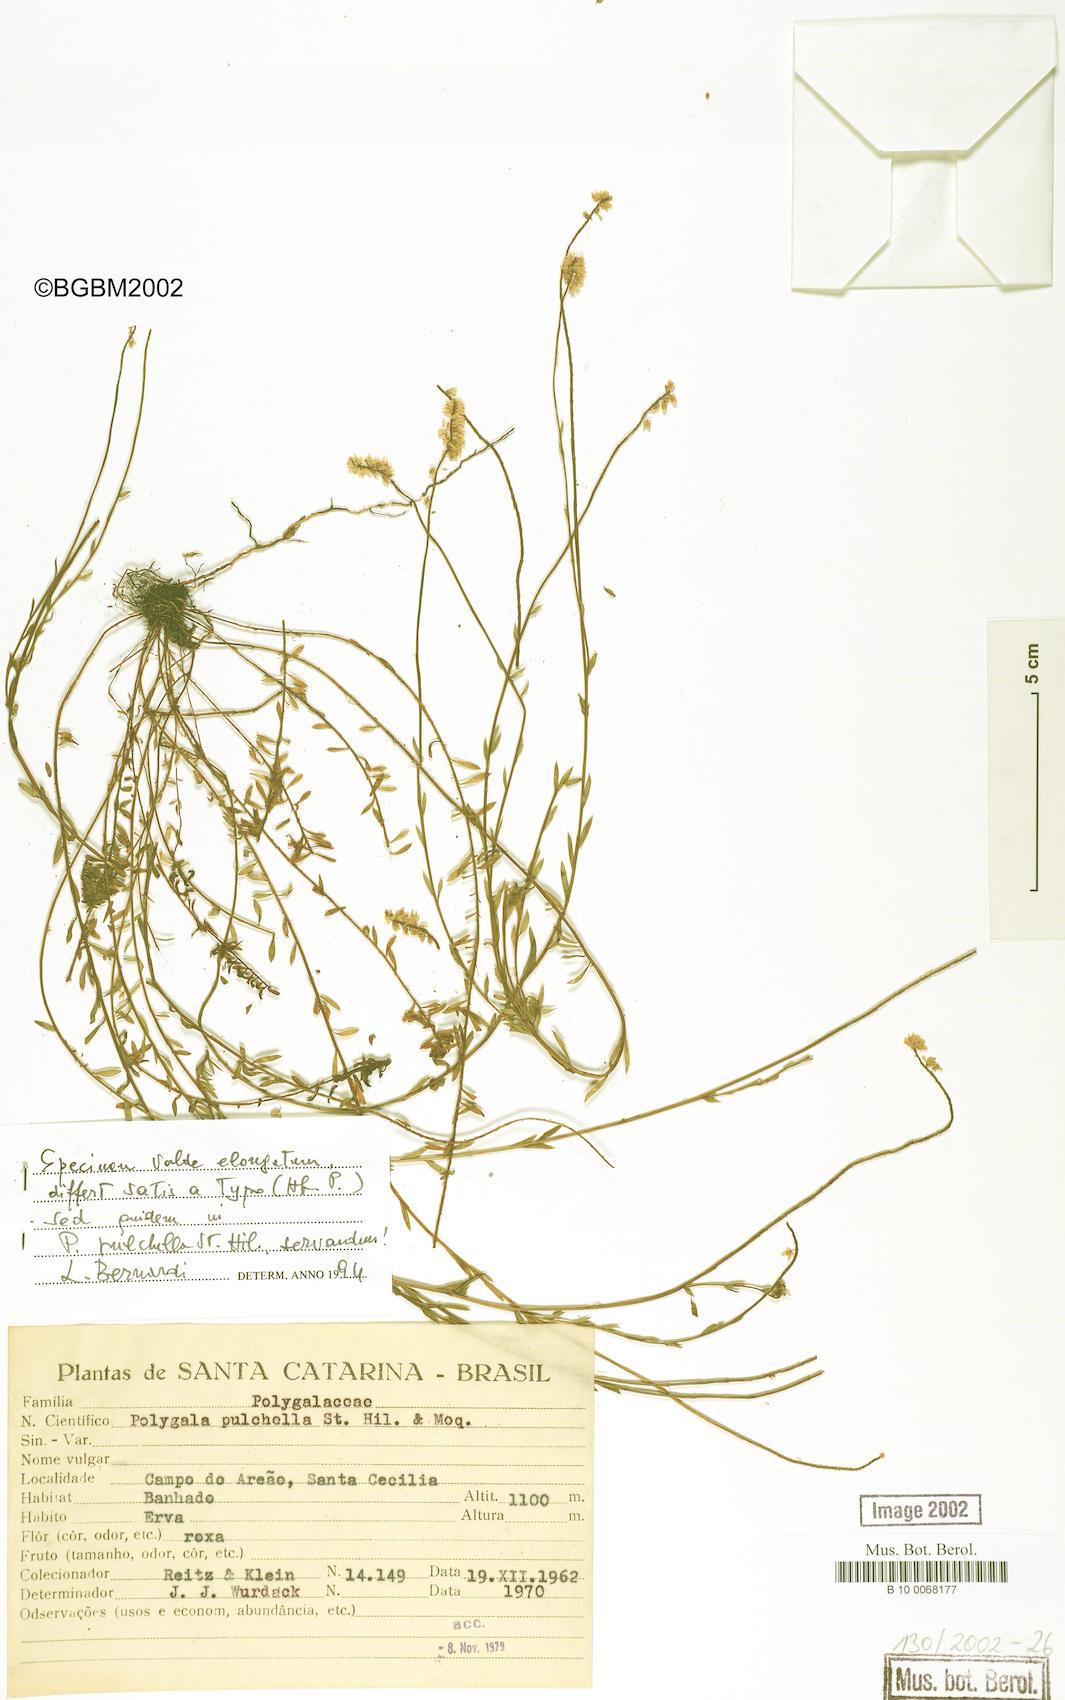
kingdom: Plantae
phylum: Tracheophyta
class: Magnoliopsida
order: Fabales
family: Polygalaceae
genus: Polygala
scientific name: Polygala pulchella
